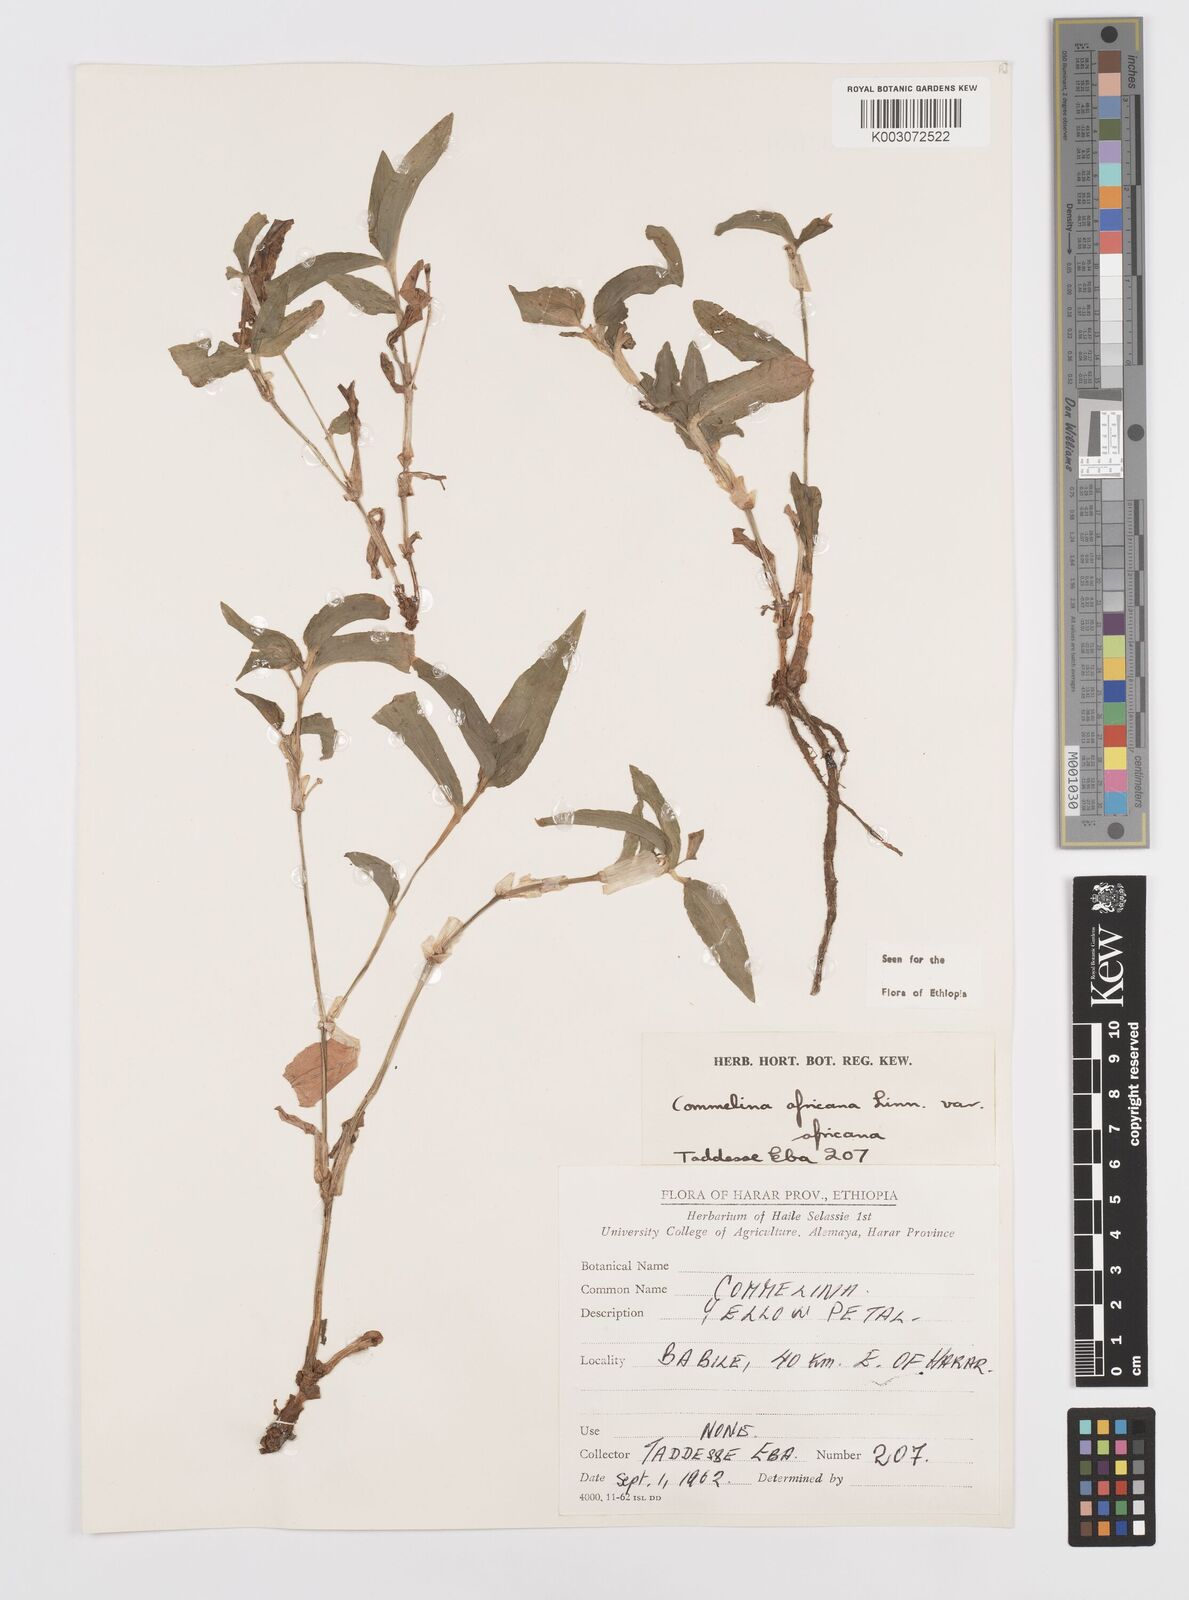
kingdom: Plantae
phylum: Tracheophyta
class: Liliopsida
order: Commelinales
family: Commelinaceae
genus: Commelina
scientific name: Commelina africana
